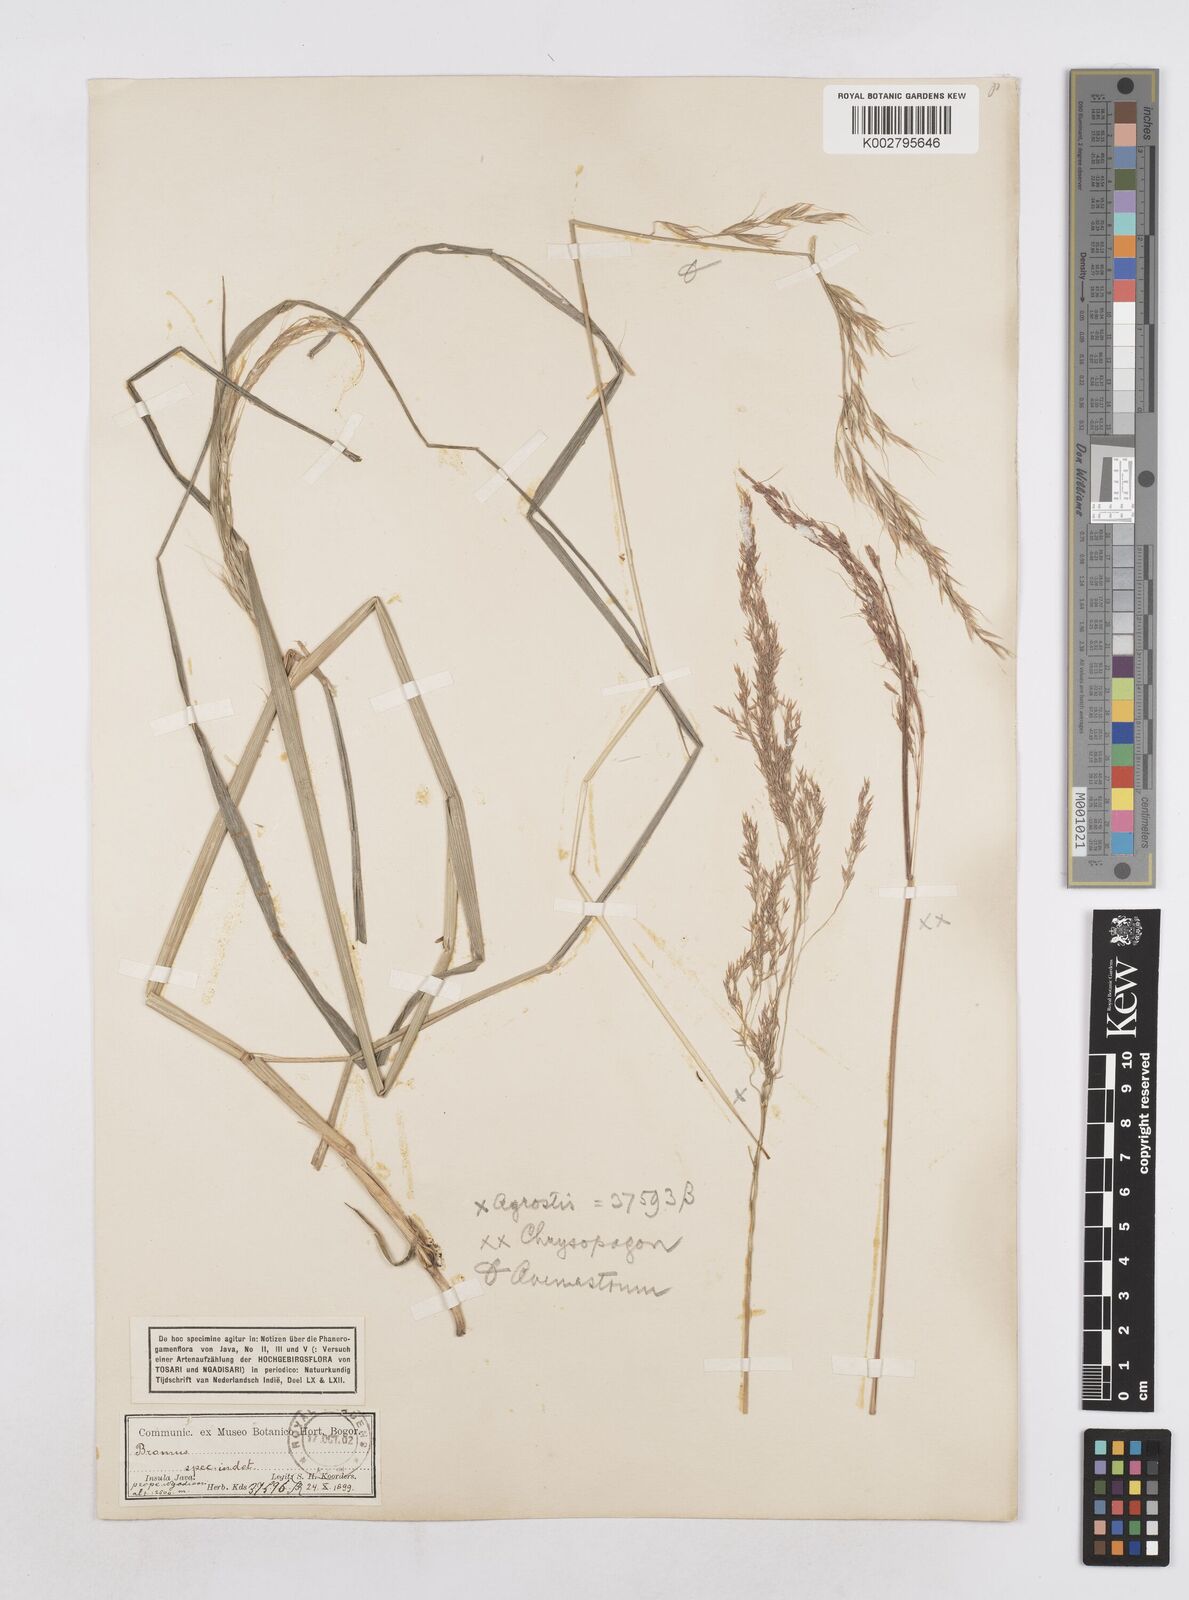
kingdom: Plantae
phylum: Tracheophyta
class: Liliopsida
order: Poales
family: Poaceae
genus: Trisetopsis
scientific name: Trisetopsis junghuhnii
